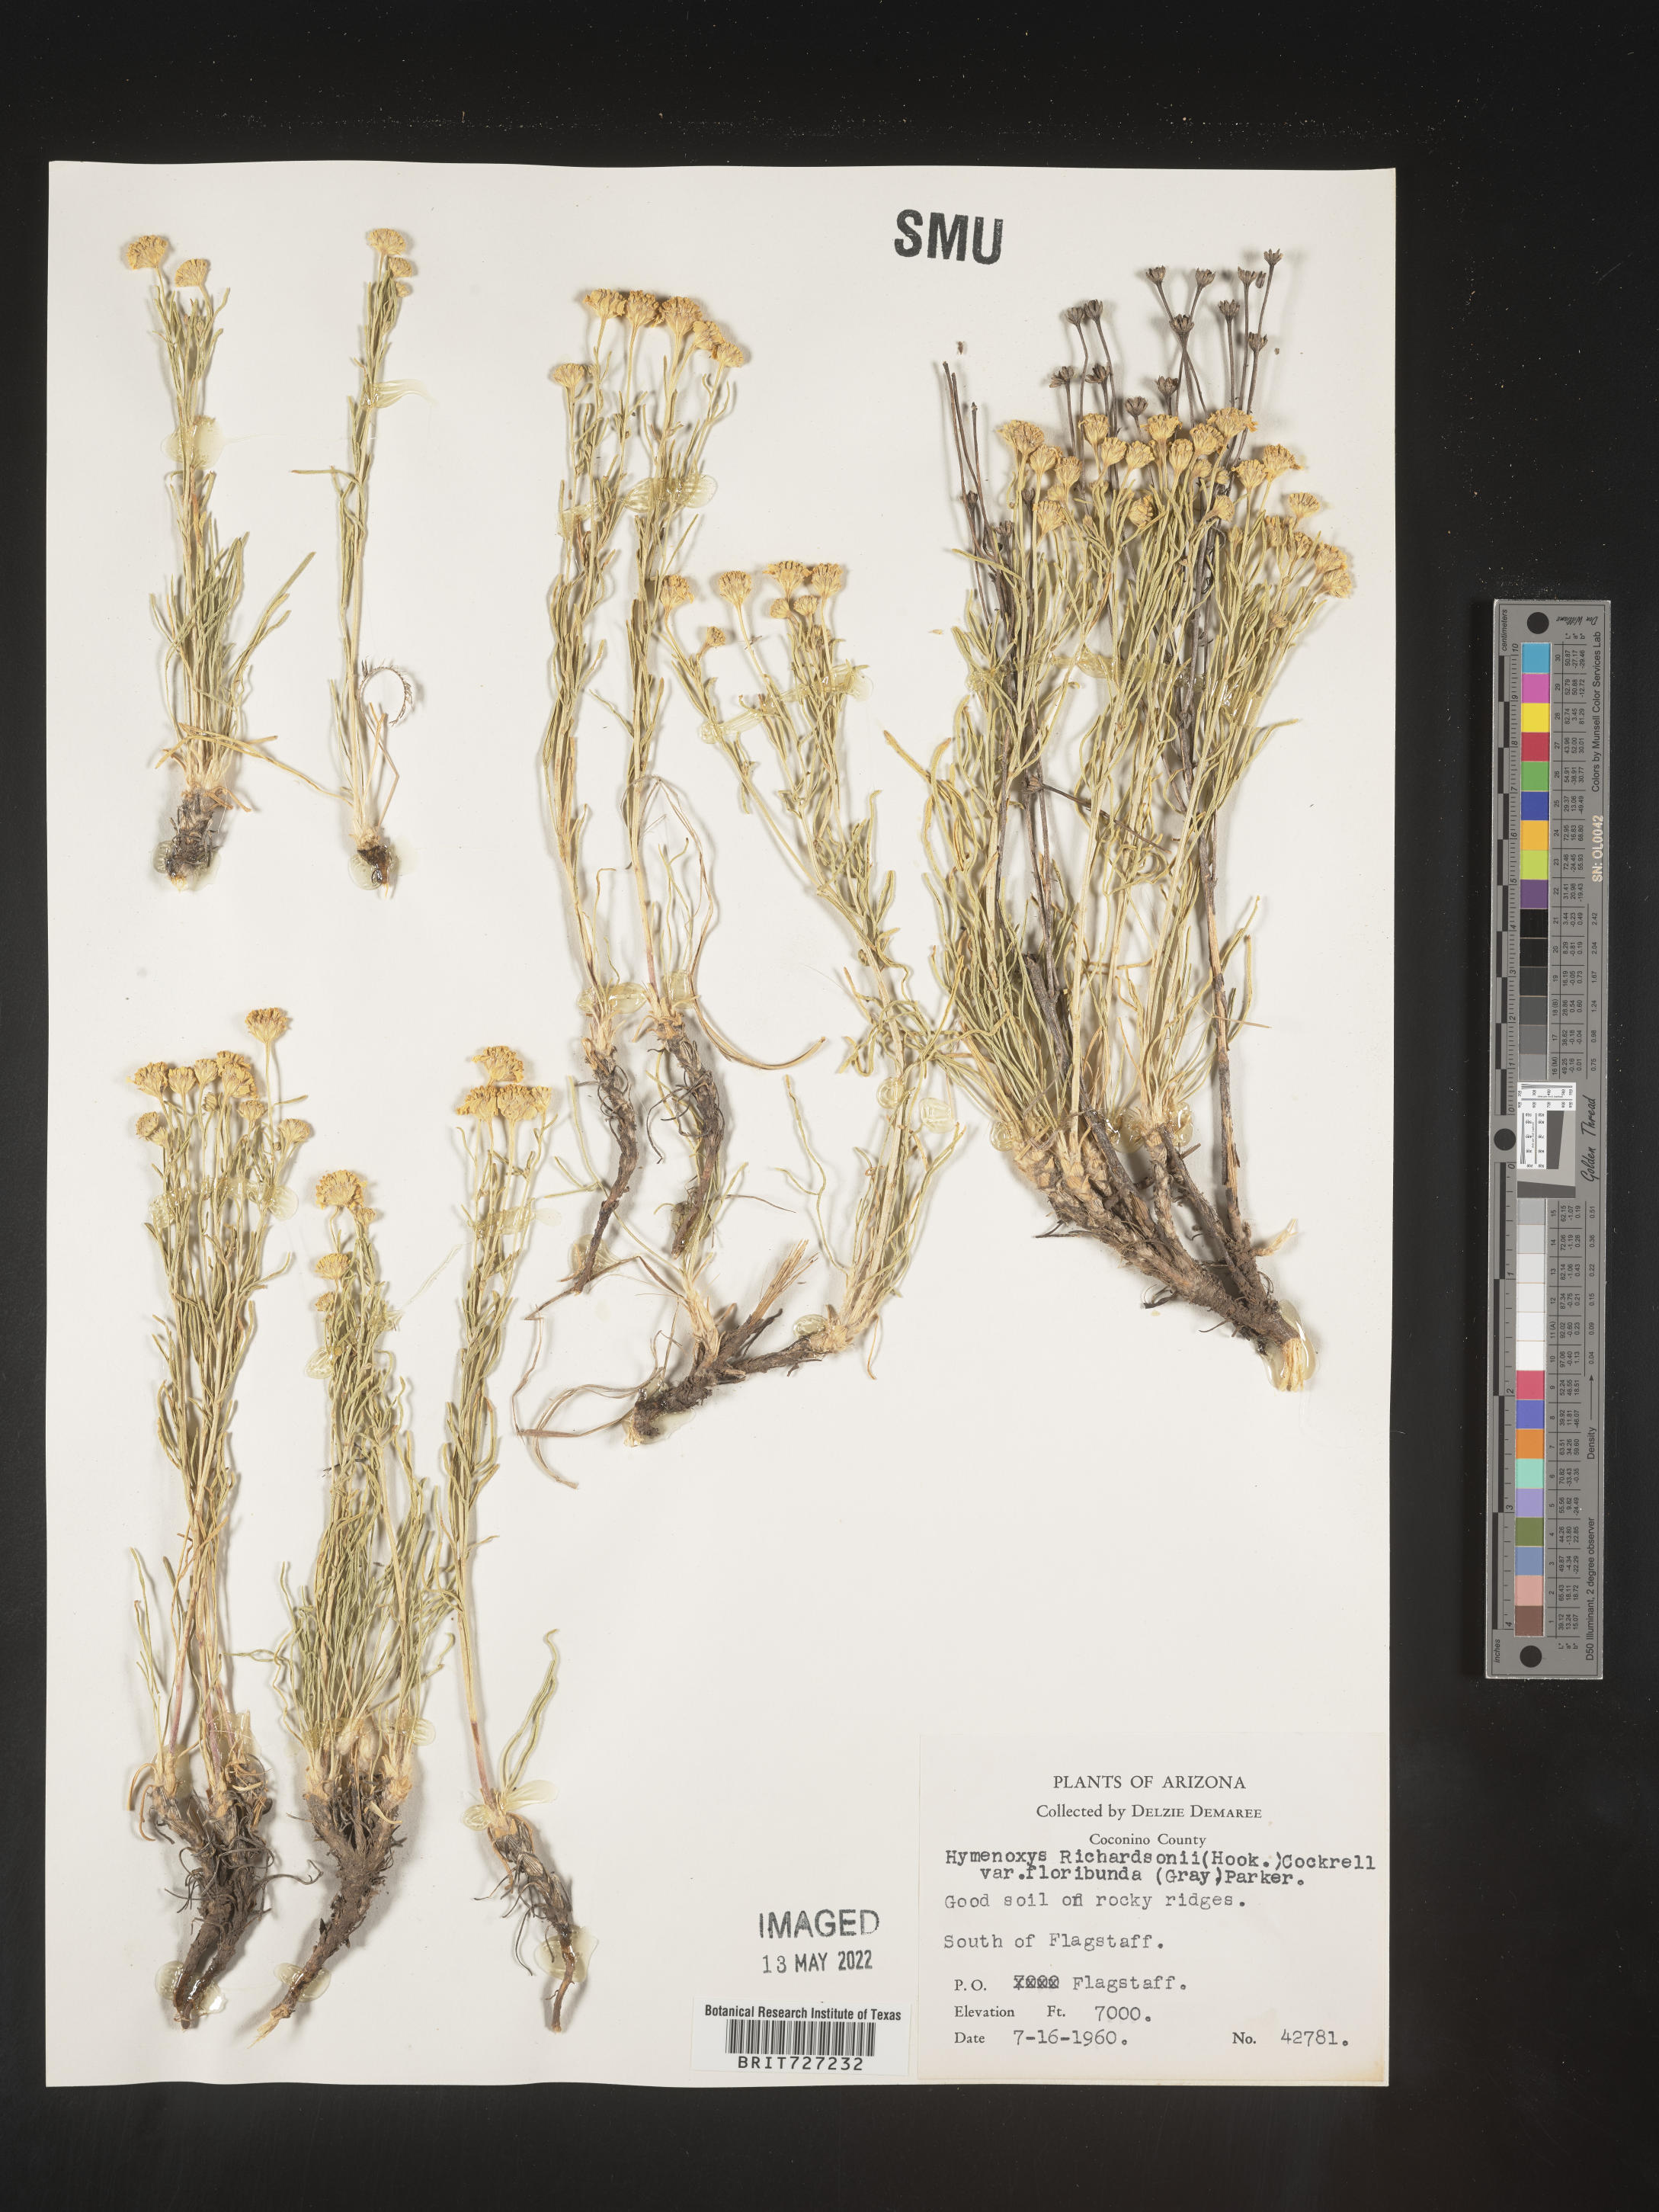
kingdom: Plantae
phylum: Tracheophyta
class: Magnoliopsida
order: Asterales
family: Asteraceae
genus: Hymenoxys
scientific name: Hymenoxys richardsonii
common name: Pingue rubberweed
